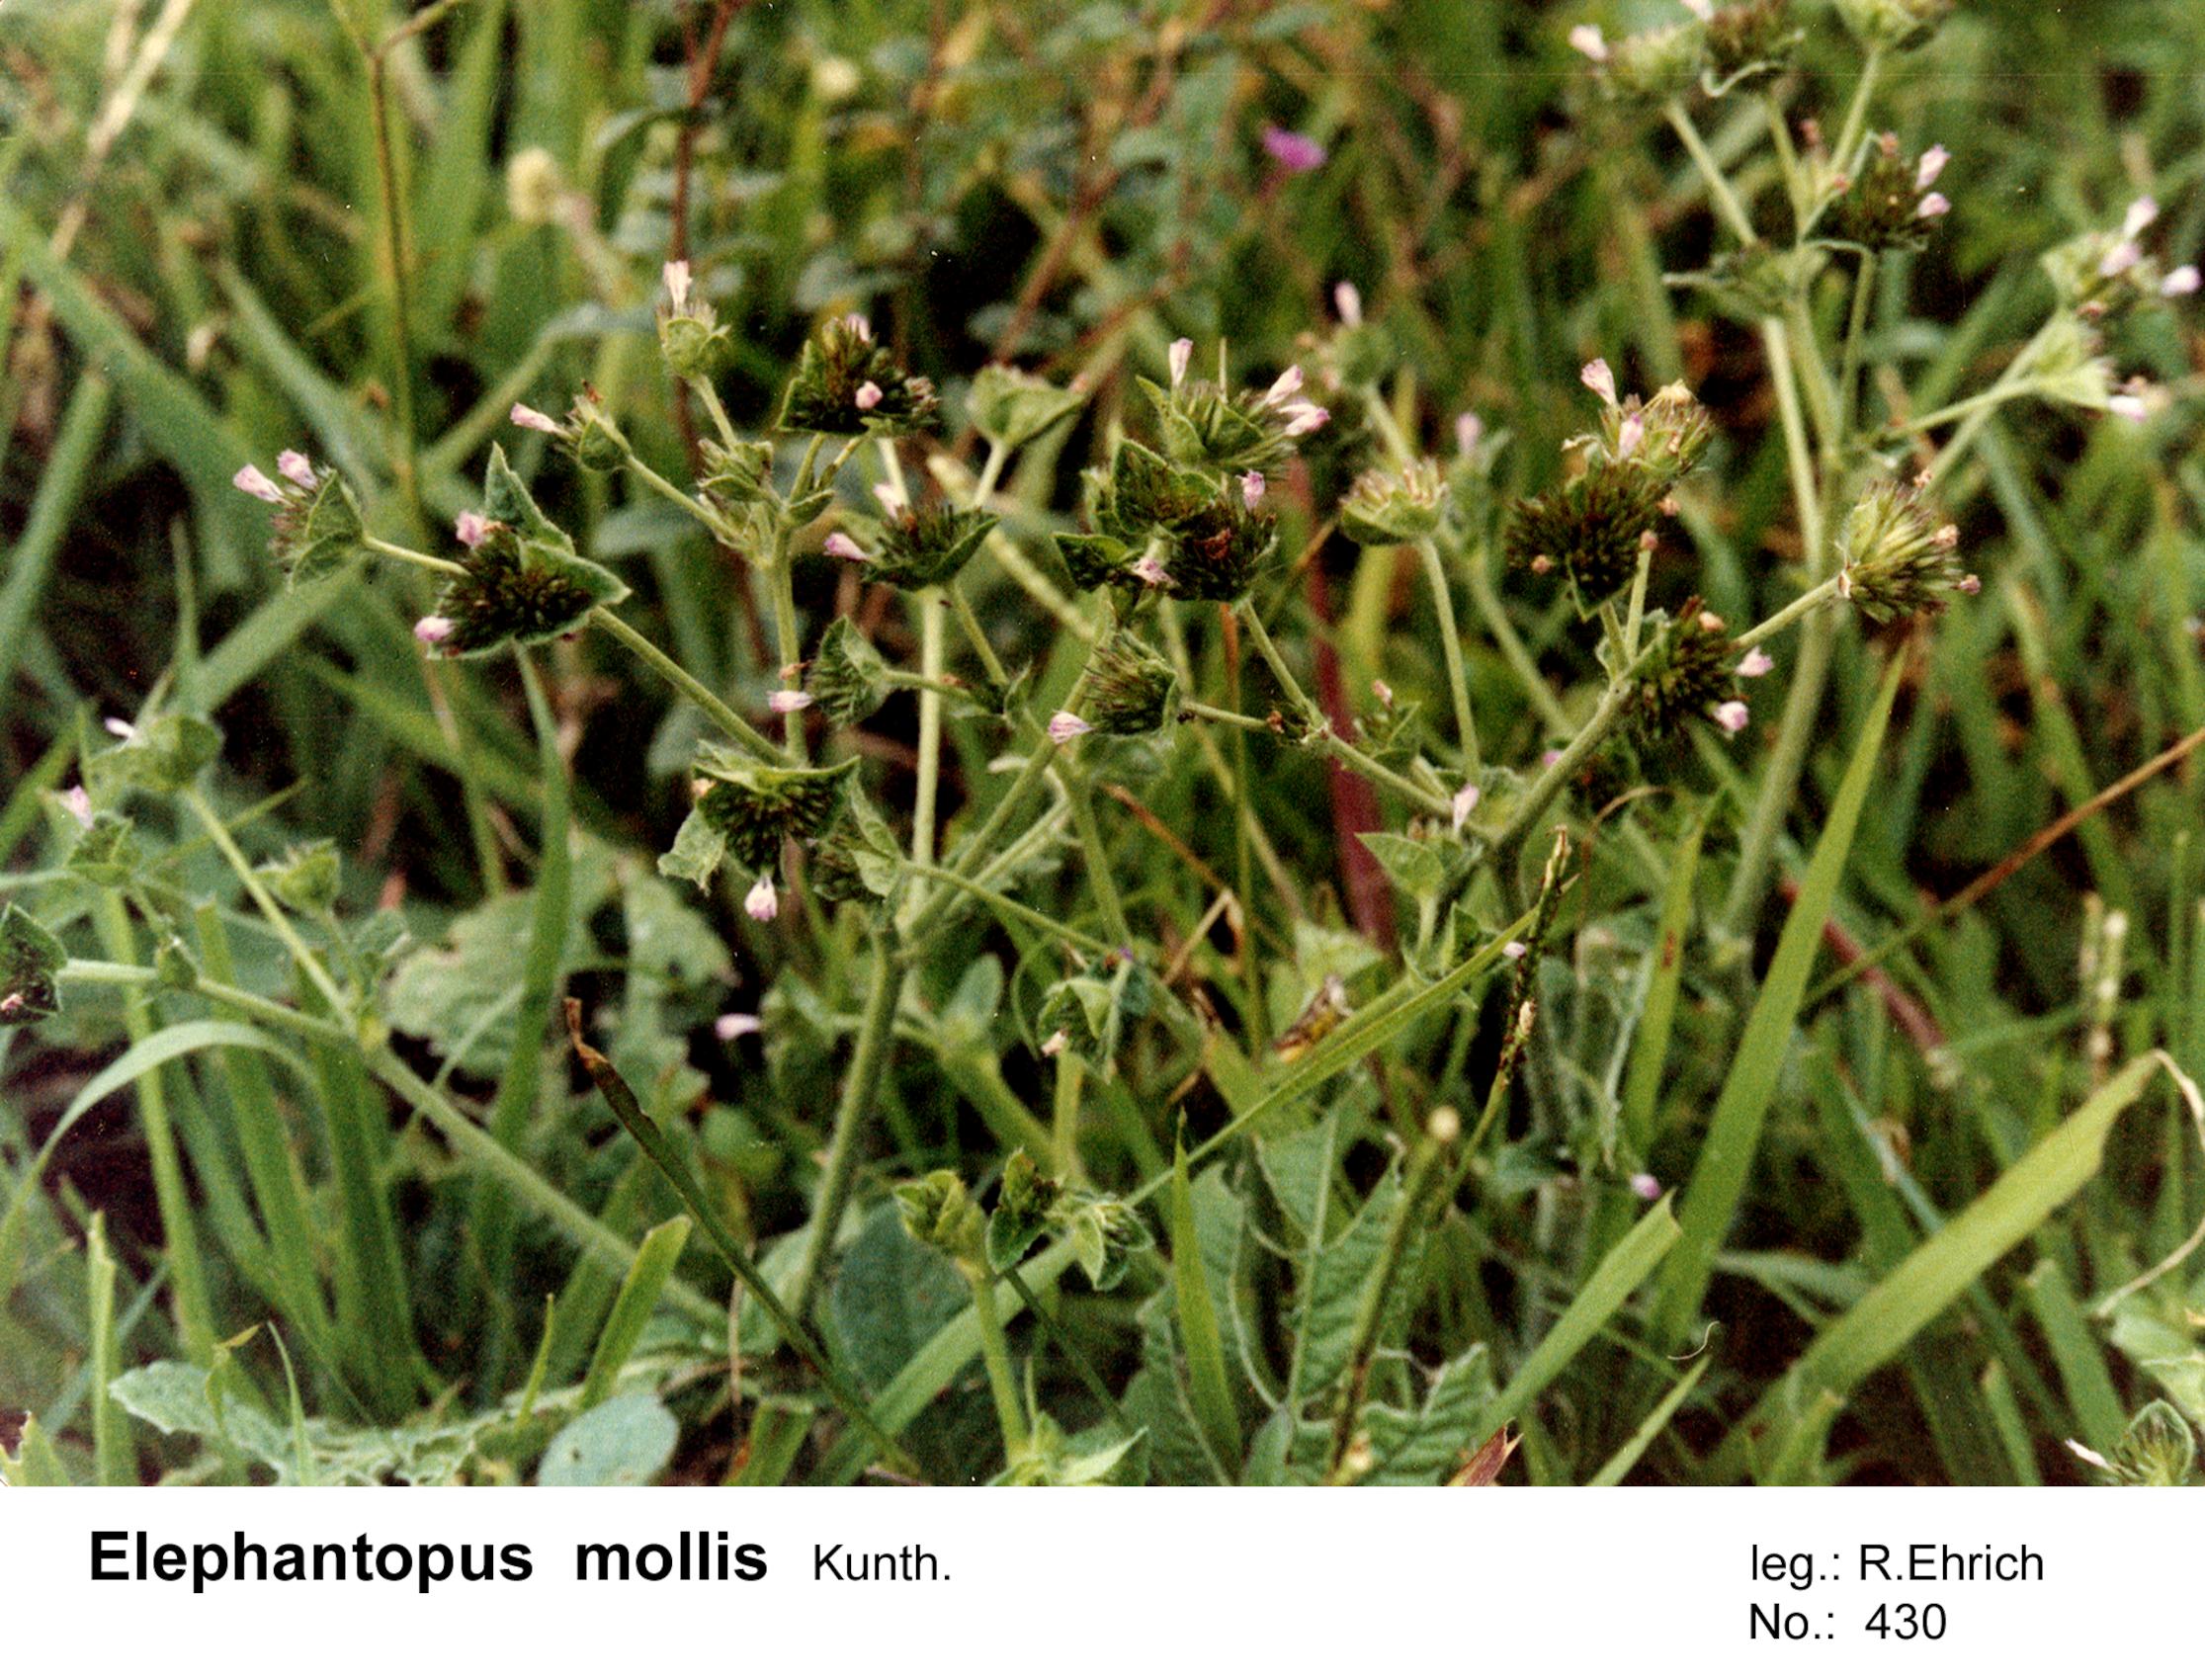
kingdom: Plantae
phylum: Tracheophyta
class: Magnoliopsida
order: Asterales
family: Asteraceae
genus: Elephantopus
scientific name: Elephantopus mollis
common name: Soft elephantsfoot
